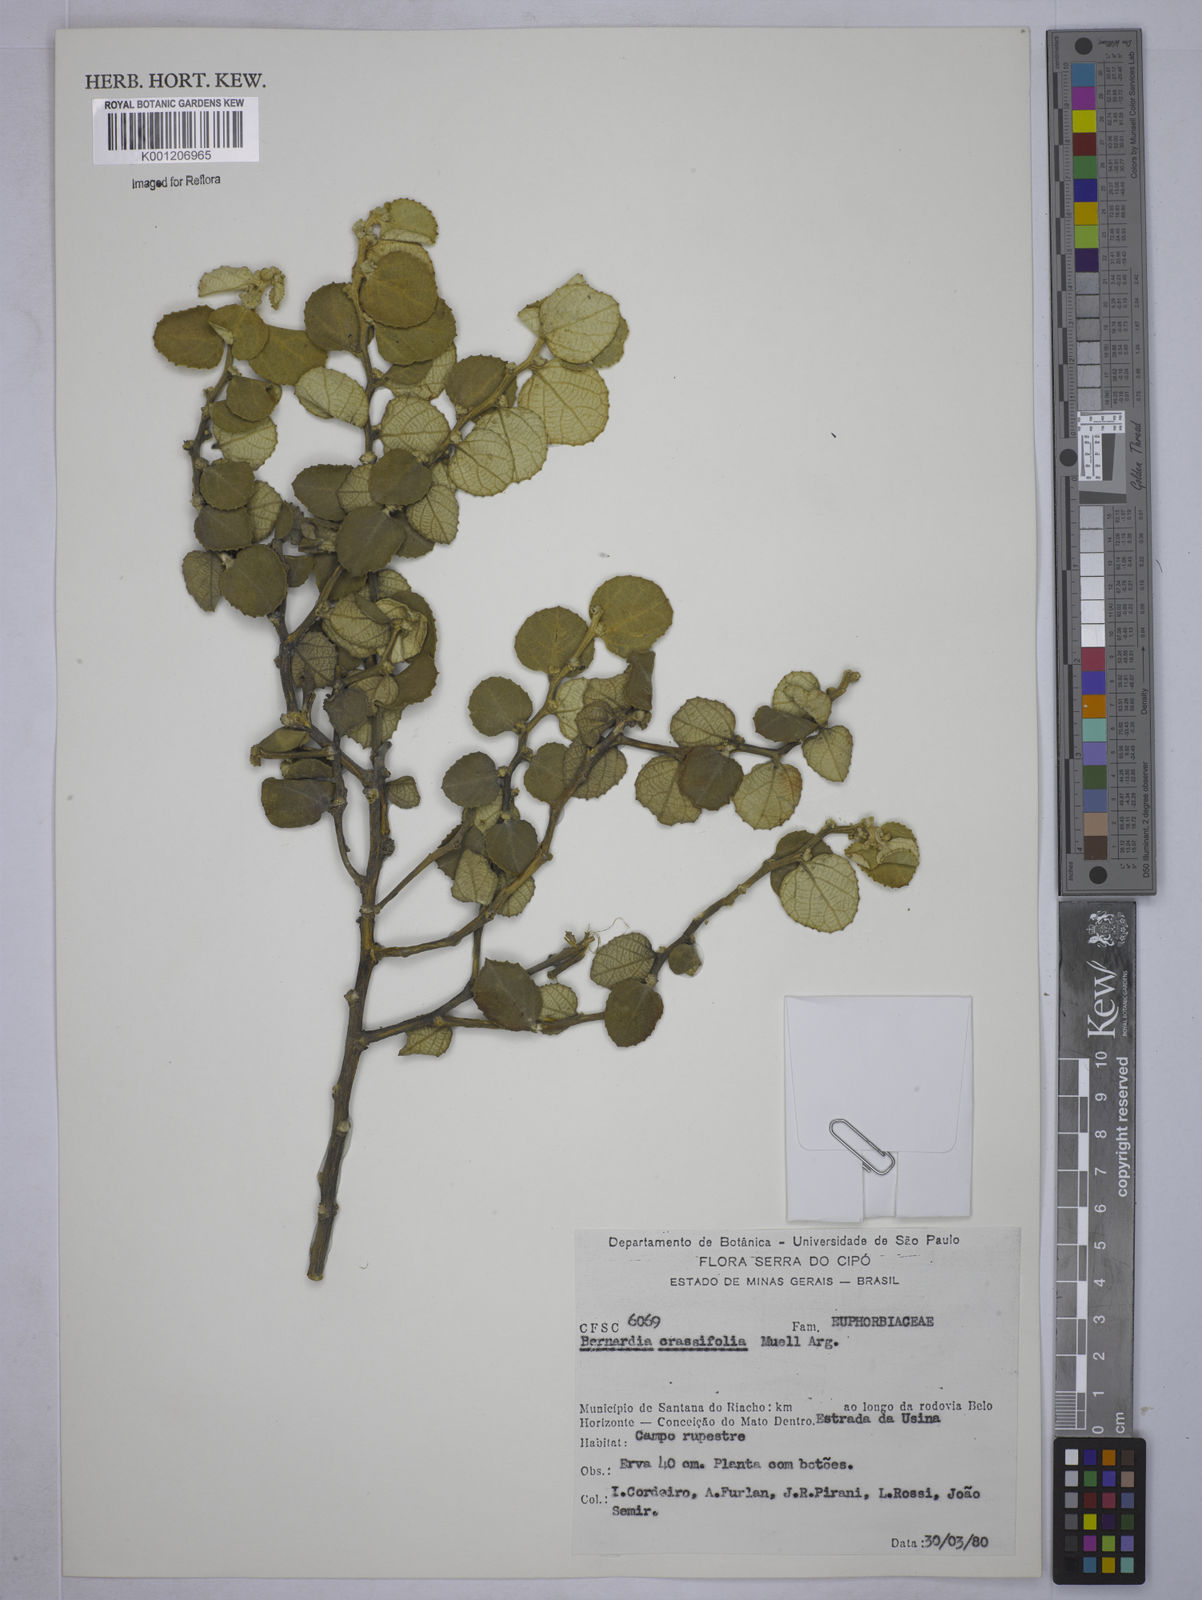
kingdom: Plantae
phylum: Tracheophyta
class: Magnoliopsida
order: Malpighiales
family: Euphorbiaceae
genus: Bernardia
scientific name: Bernardia
